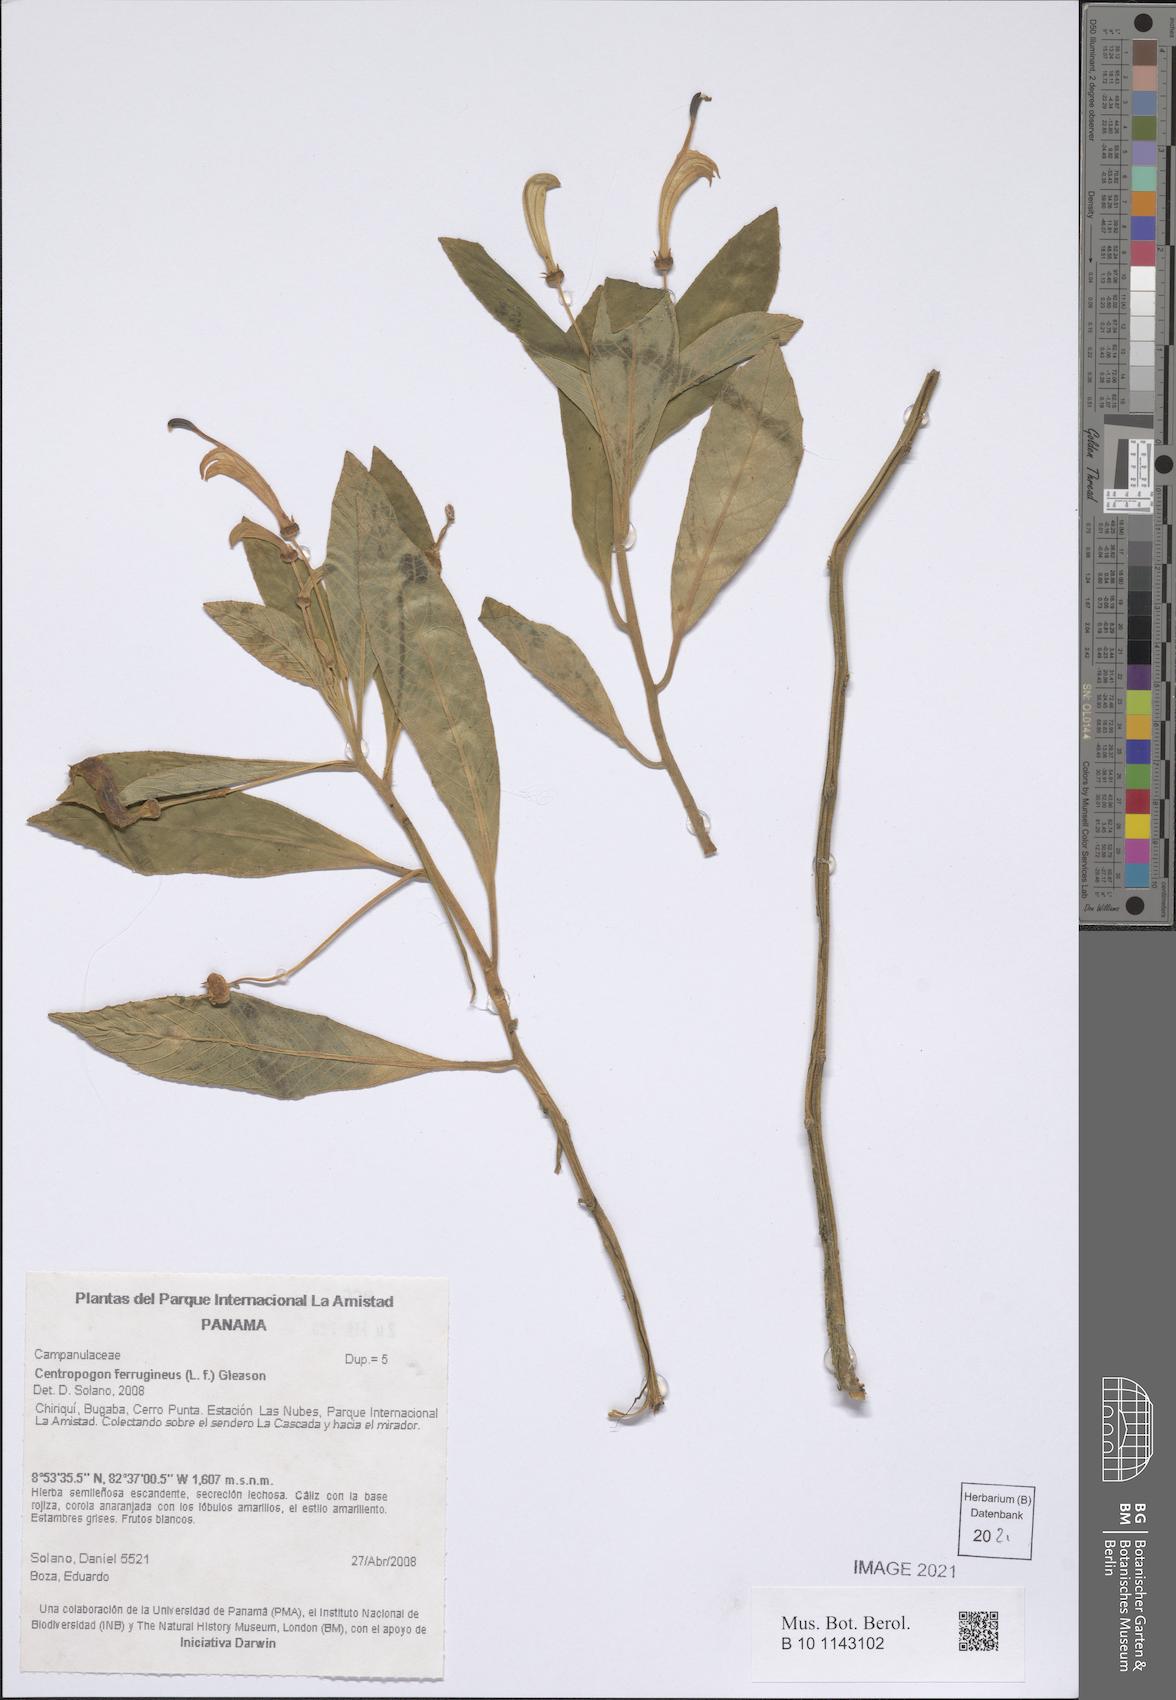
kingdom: Plantae
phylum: Tracheophyta
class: Magnoliopsida
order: Asterales
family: Campanulaceae
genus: Centropogon
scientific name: Centropogon ferrugineus
